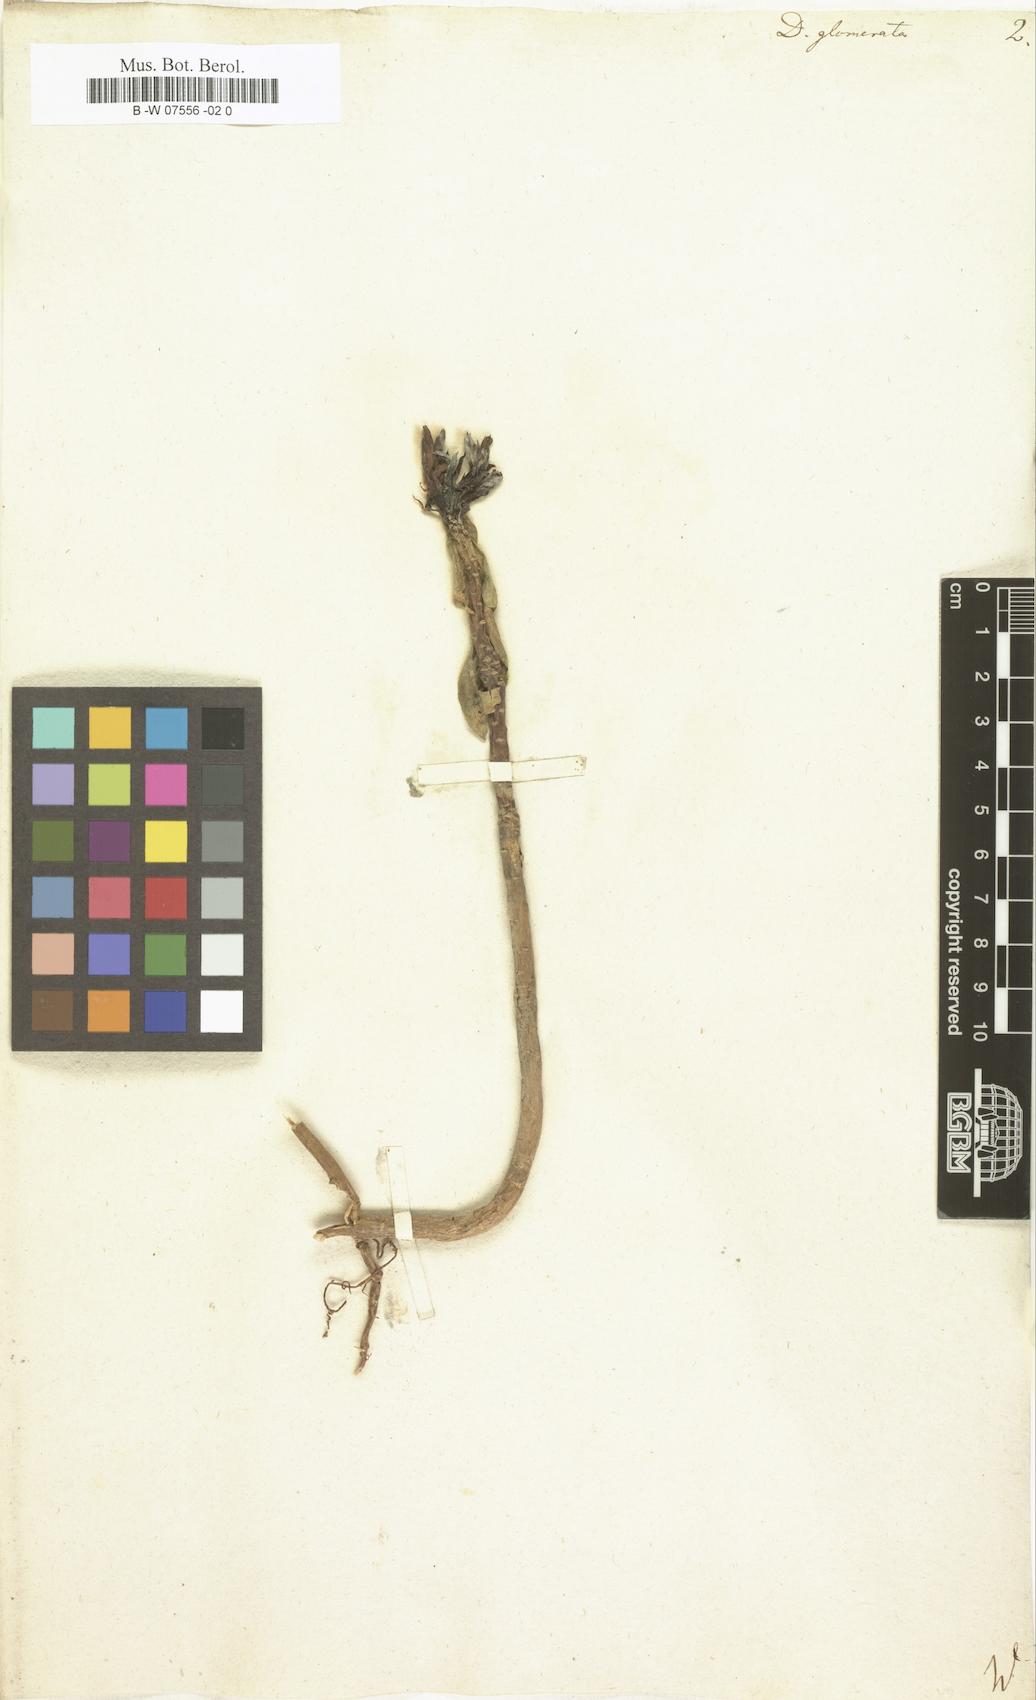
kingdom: Plantae
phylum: Tracheophyta
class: Magnoliopsida
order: Malvales
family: Thymelaeaceae
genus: Daphne
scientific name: Daphne glomerata
